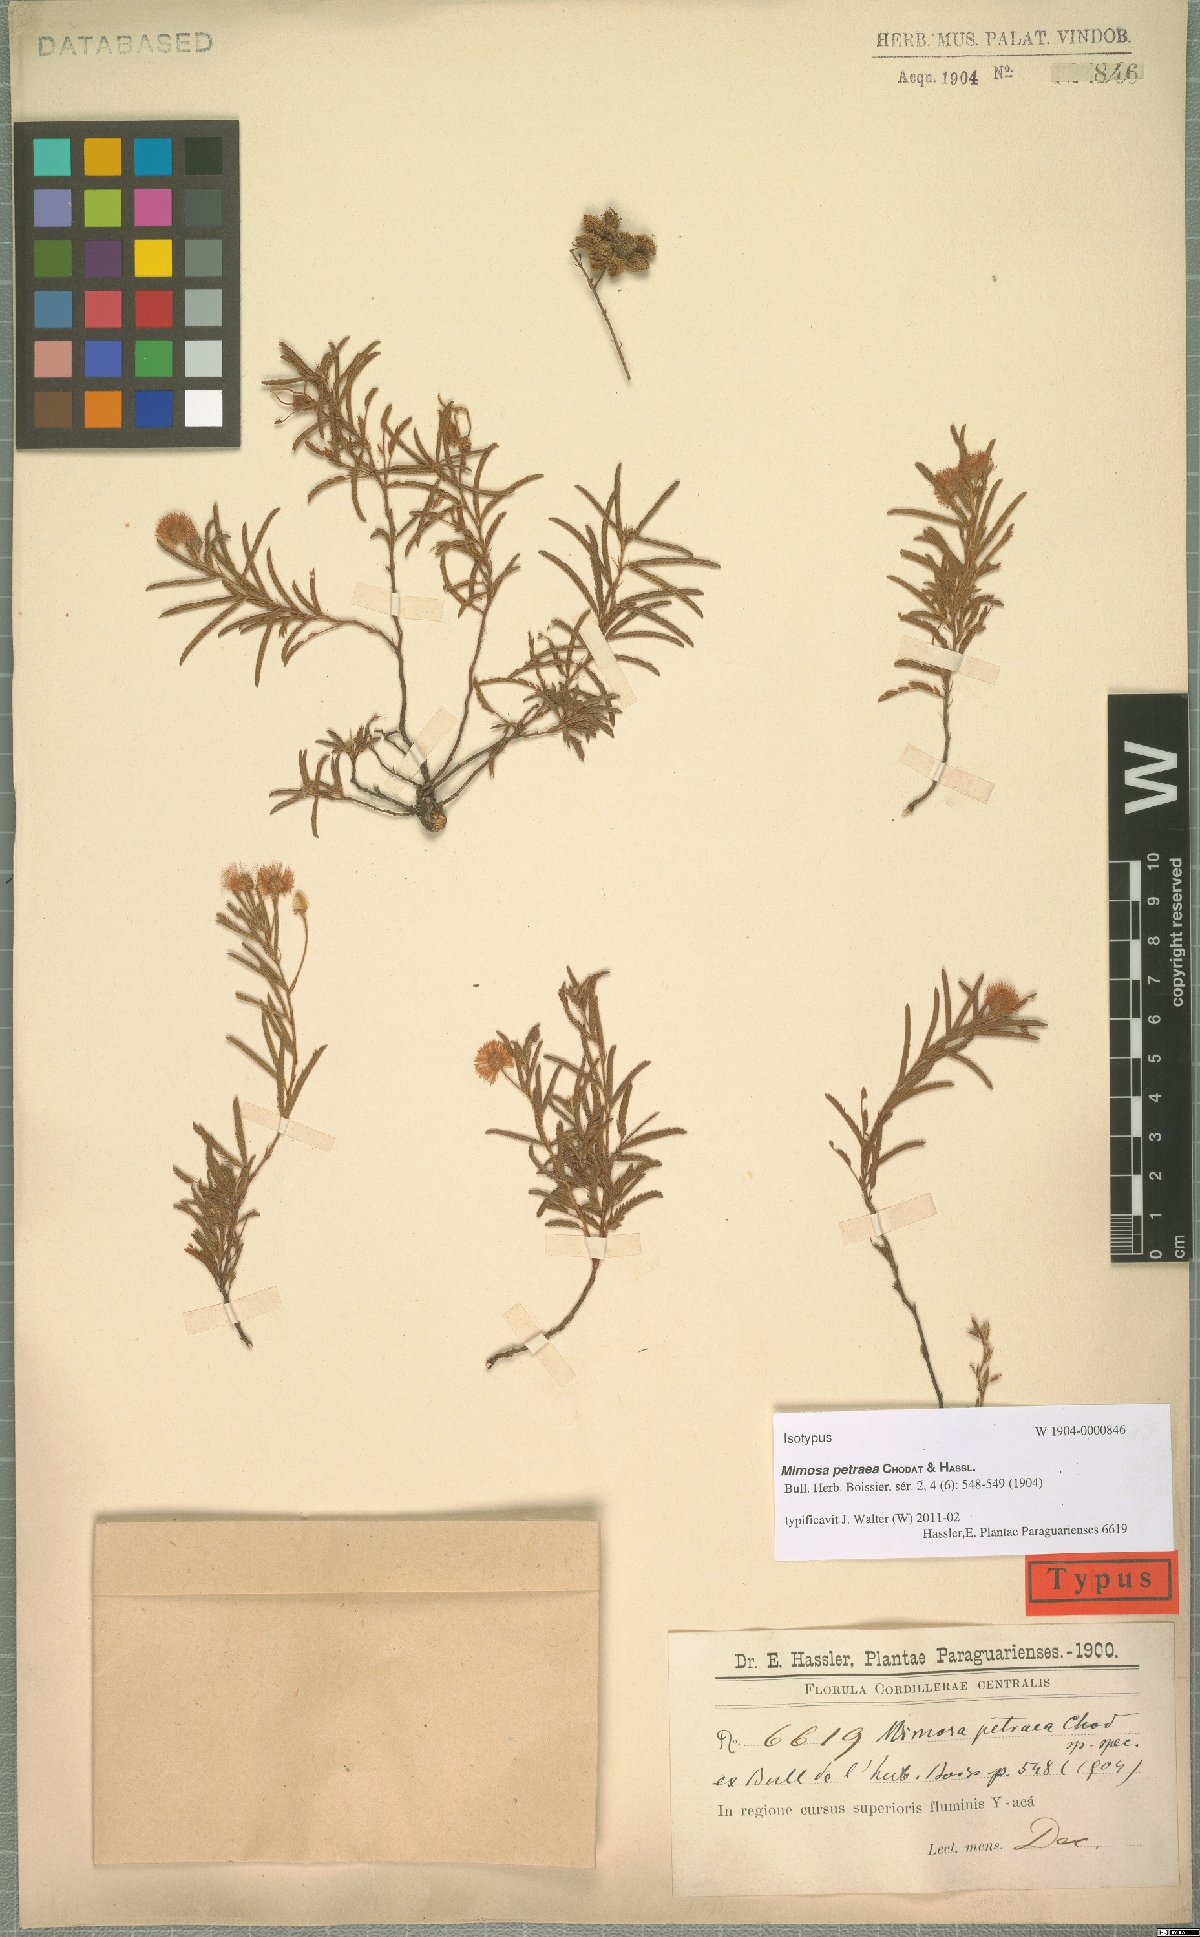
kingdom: Plantae
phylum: Tracheophyta
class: Magnoliopsida
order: Fabales
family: Fabaceae
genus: Mimosa
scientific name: Mimosa petraea
